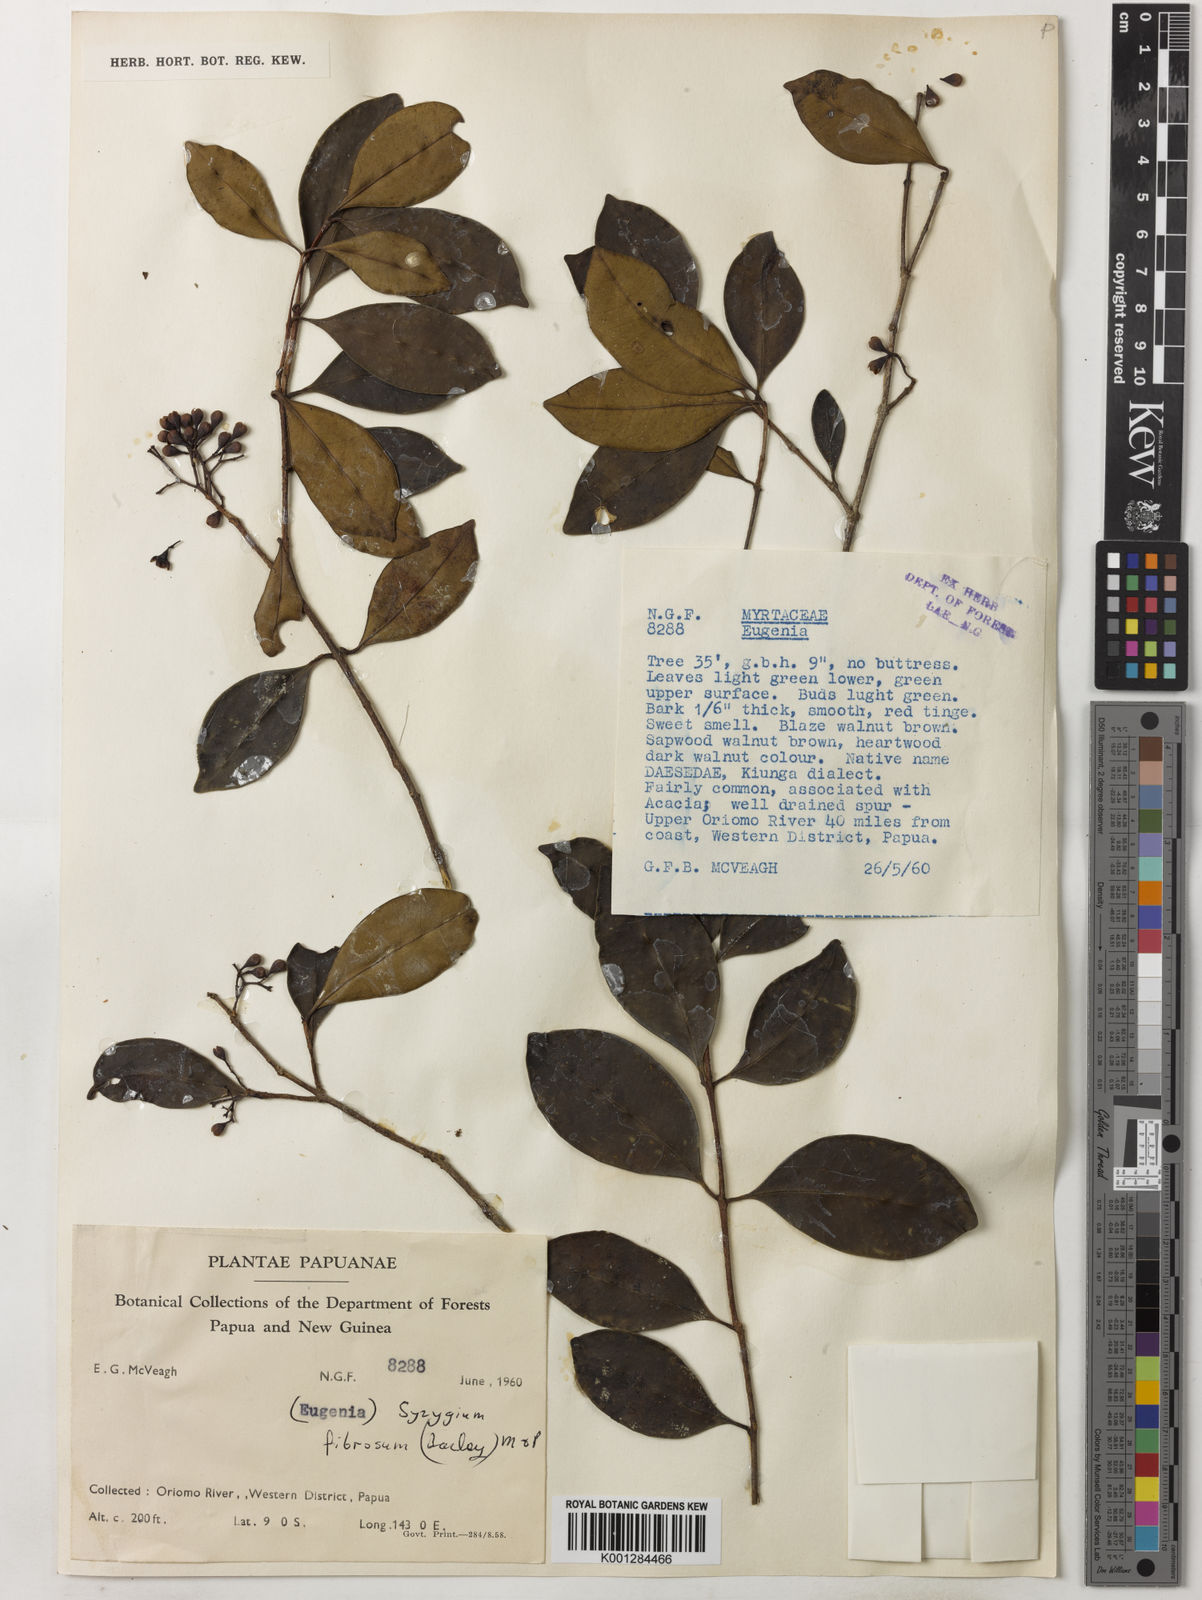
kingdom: Plantae
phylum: Tracheophyta
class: Magnoliopsida
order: Myrtales
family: Myrtaceae
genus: Syzygium
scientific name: Syzygium fibrosum
